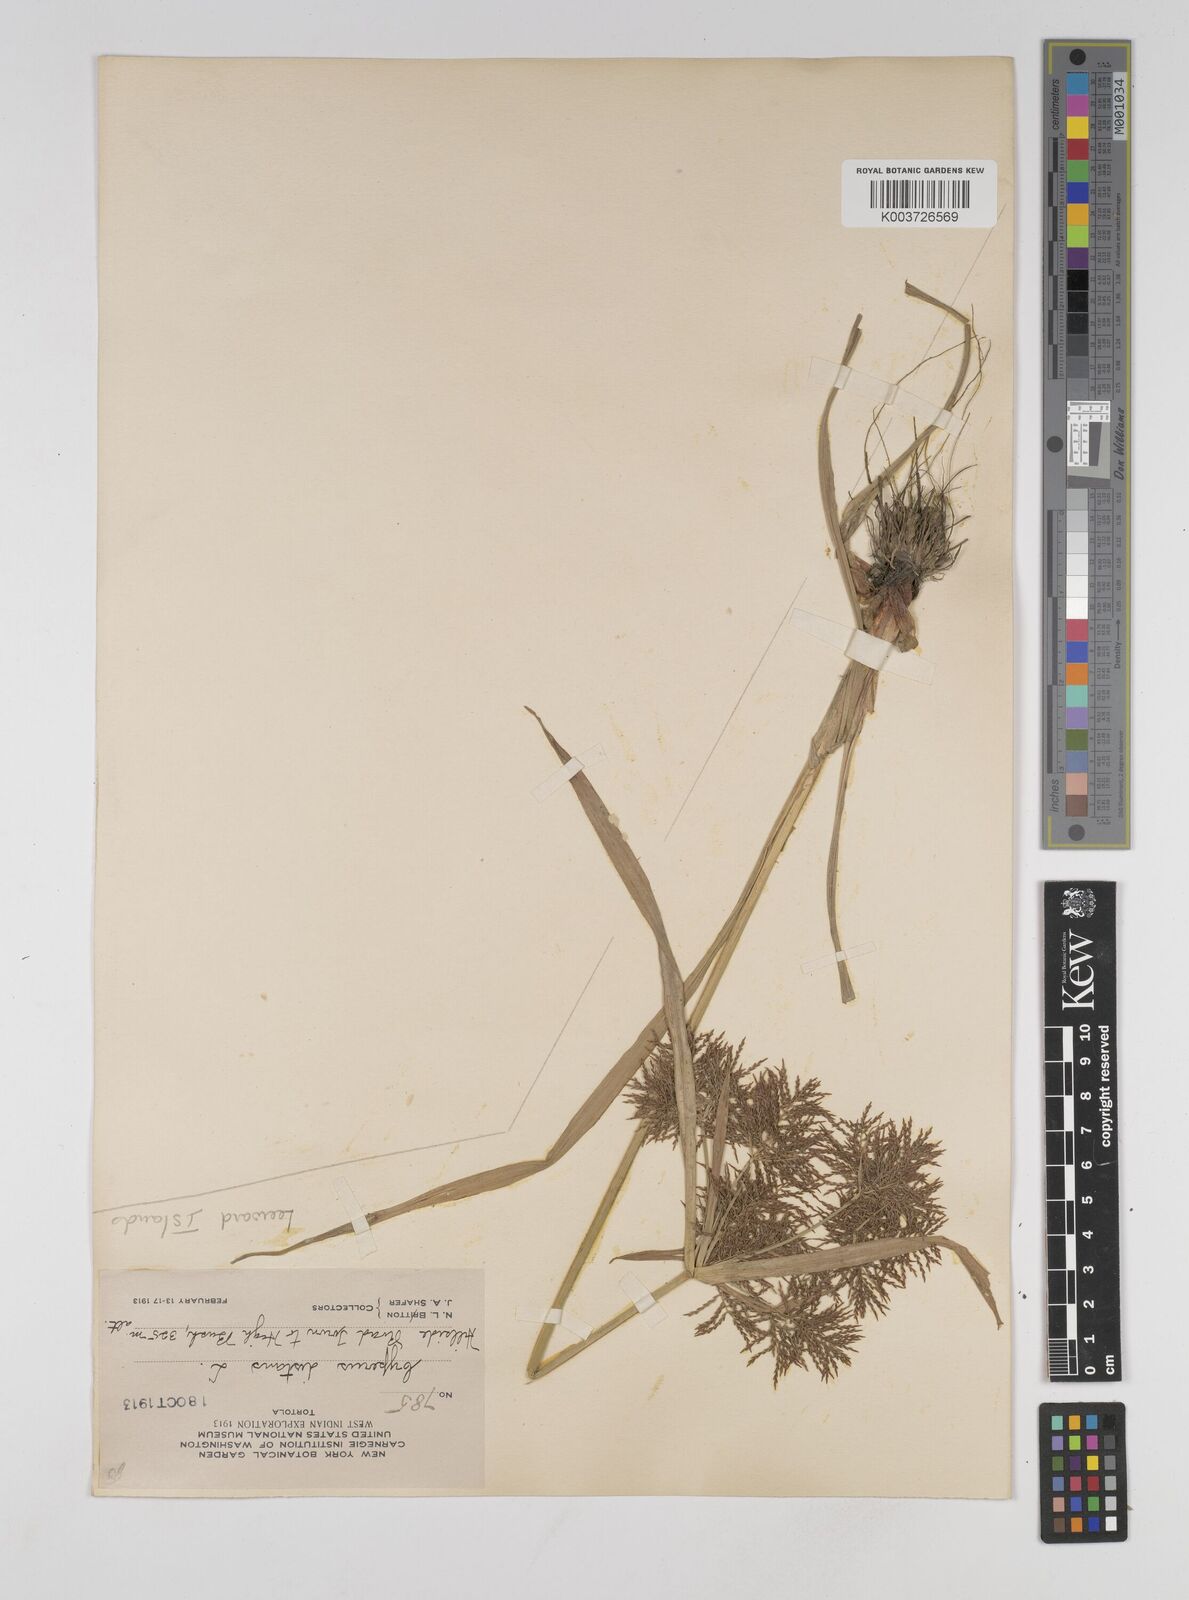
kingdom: Plantae
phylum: Tracheophyta
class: Liliopsida
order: Poales
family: Cyperaceae
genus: Cyperus
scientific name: Cyperus distans
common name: Slender cyperus
